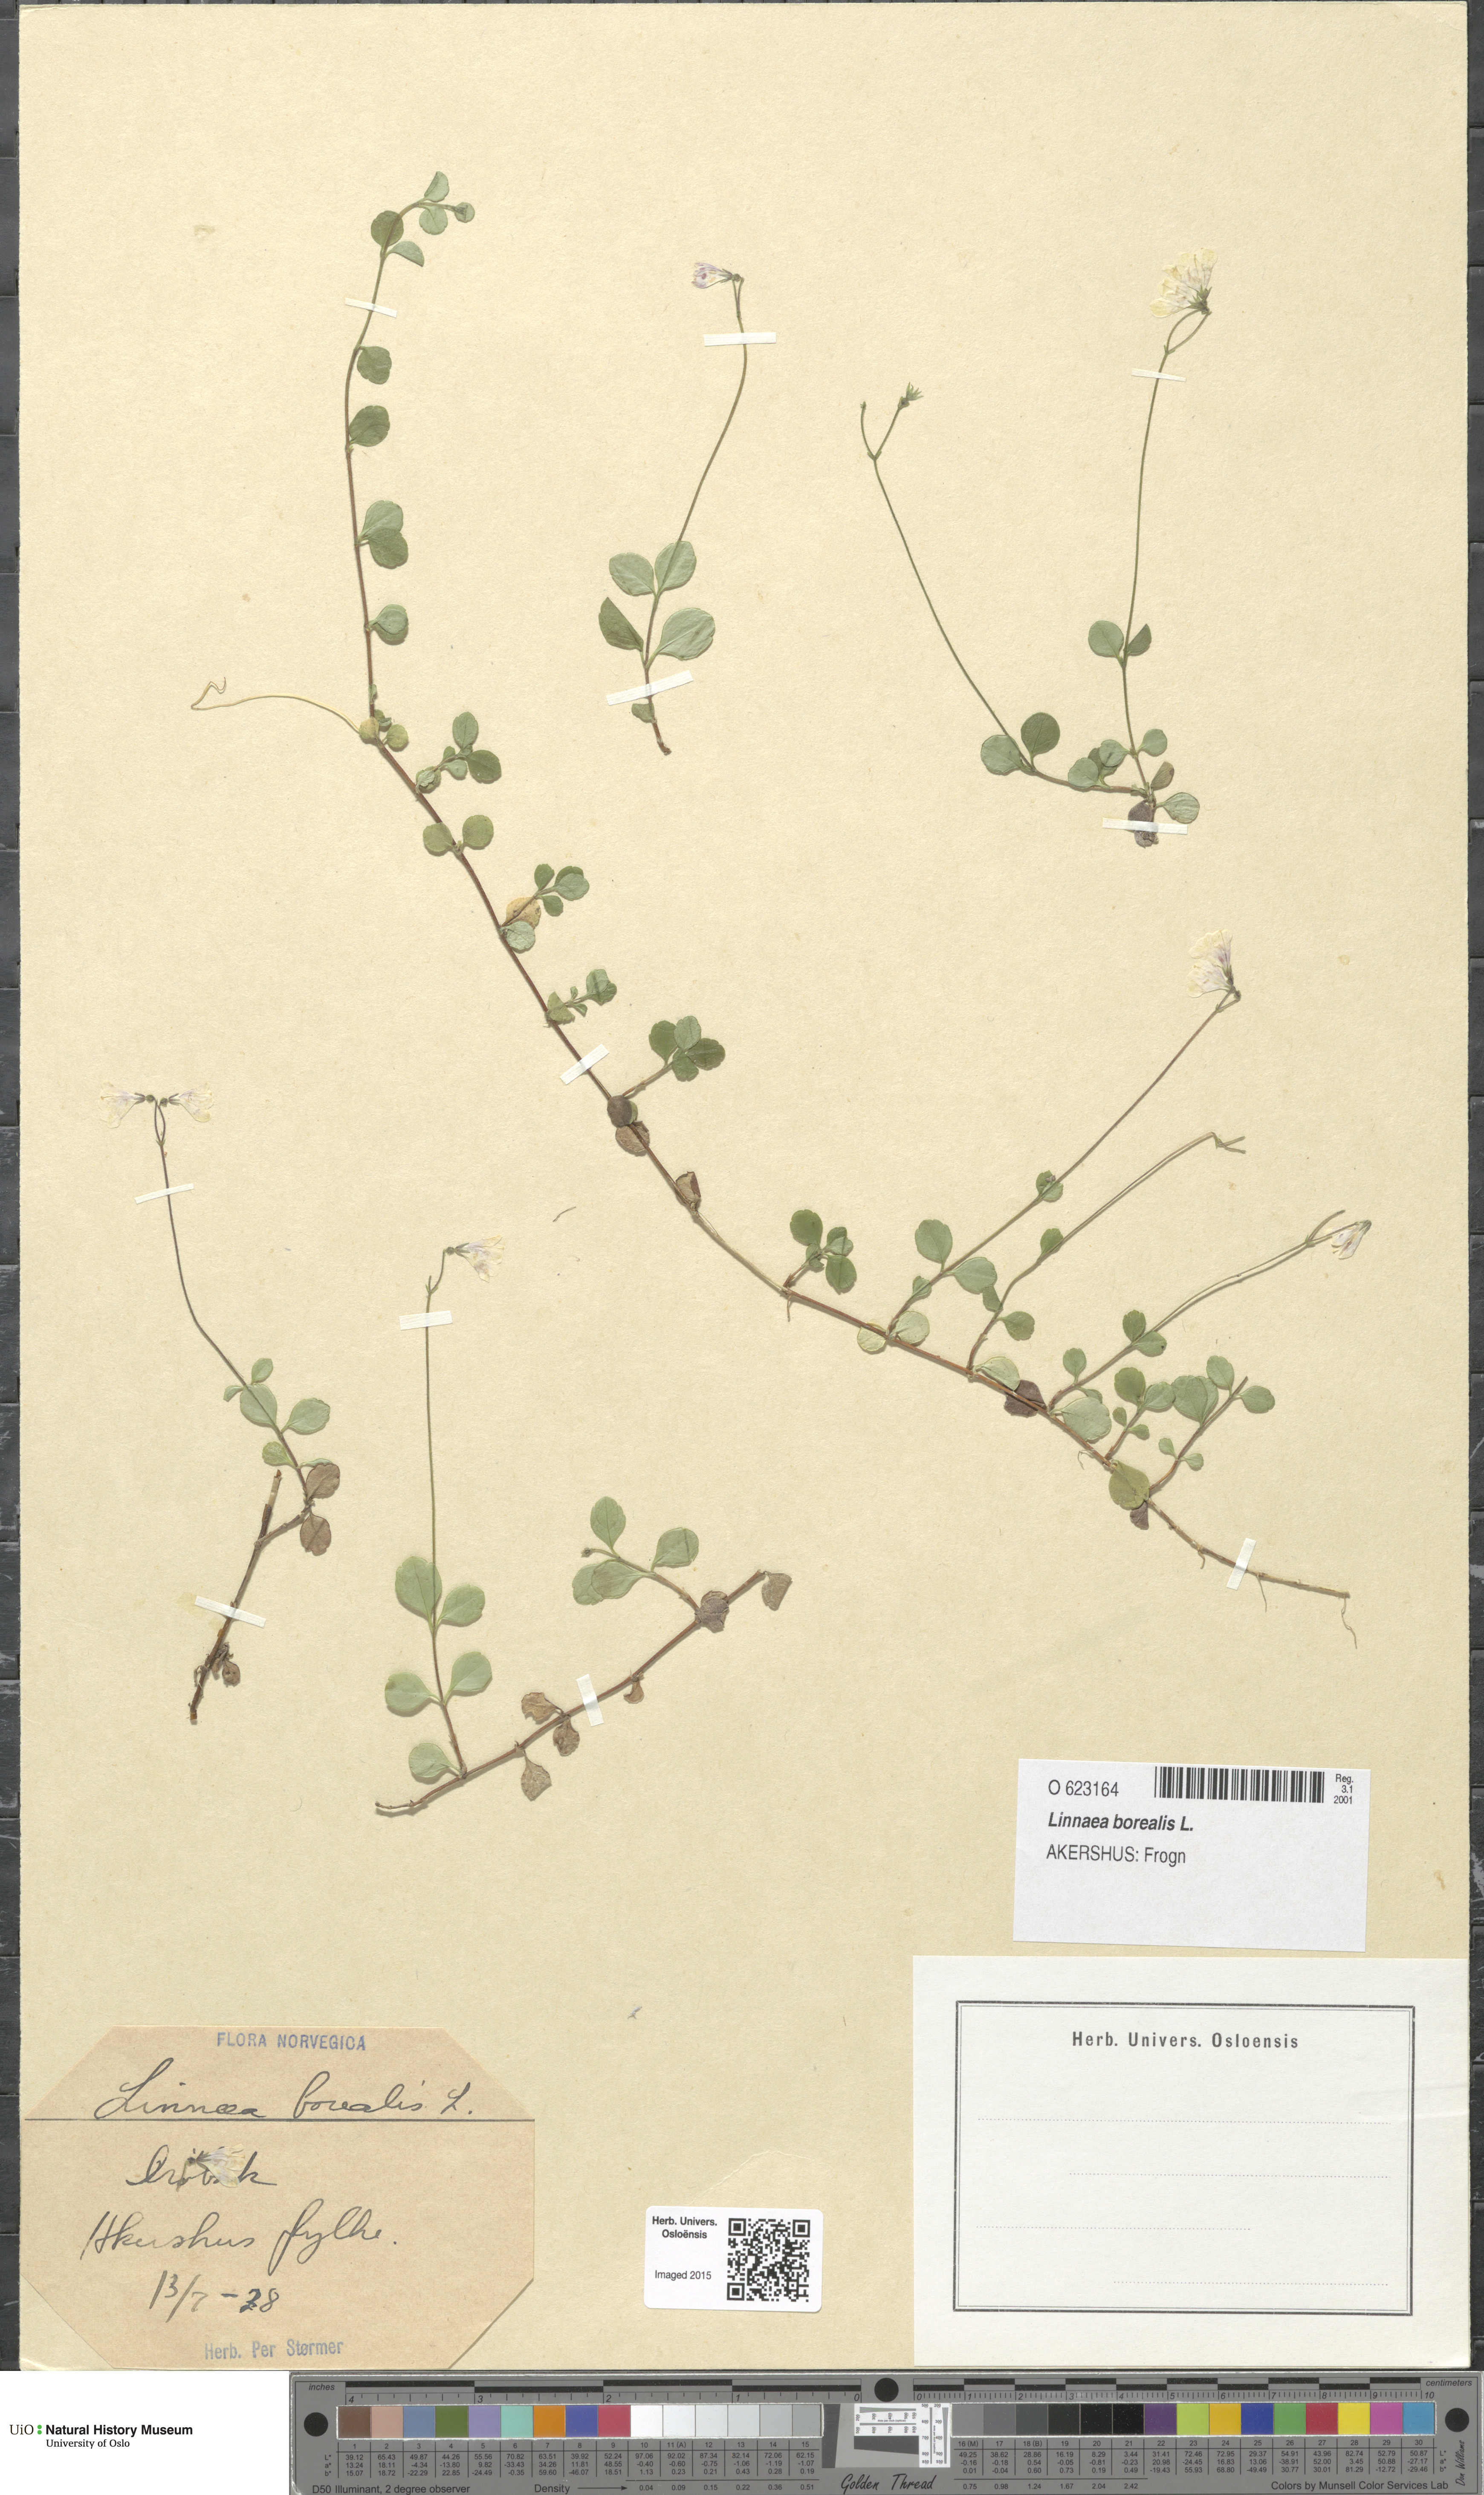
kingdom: Plantae
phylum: Tracheophyta
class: Magnoliopsida
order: Dipsacales
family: Caprifoliaceae
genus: Linnaea
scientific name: Linnaea borealis
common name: Twinflower
